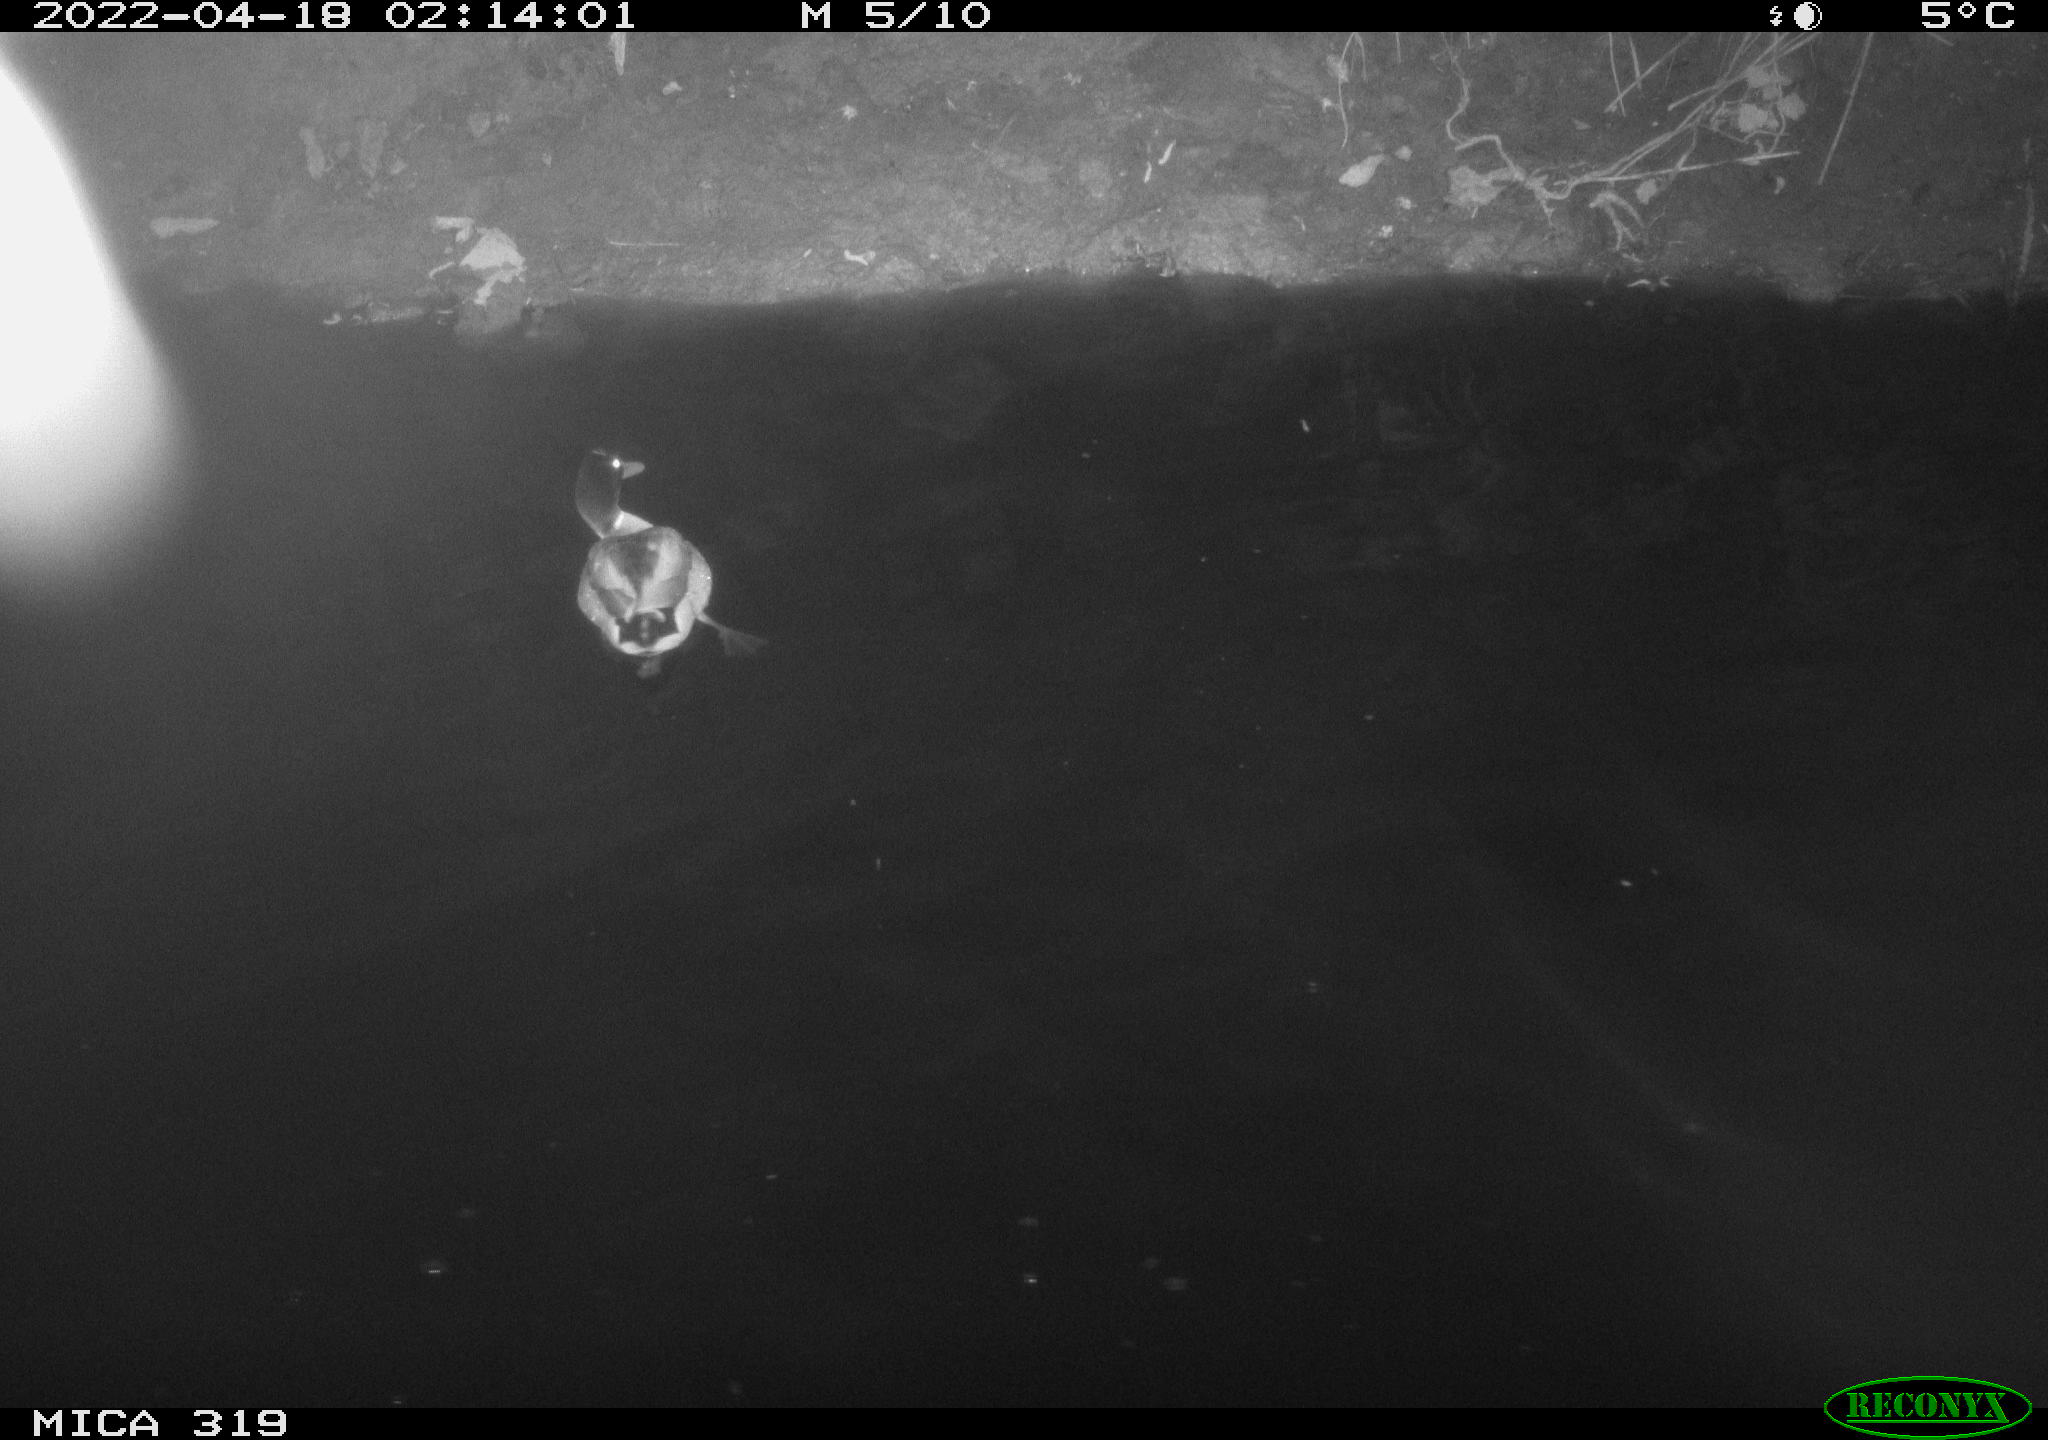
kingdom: Animalia
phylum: Chordata
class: Aves
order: Anseriformes
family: Anatidae
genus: Anas
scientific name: Anas platyrhynchos
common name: Mallard
